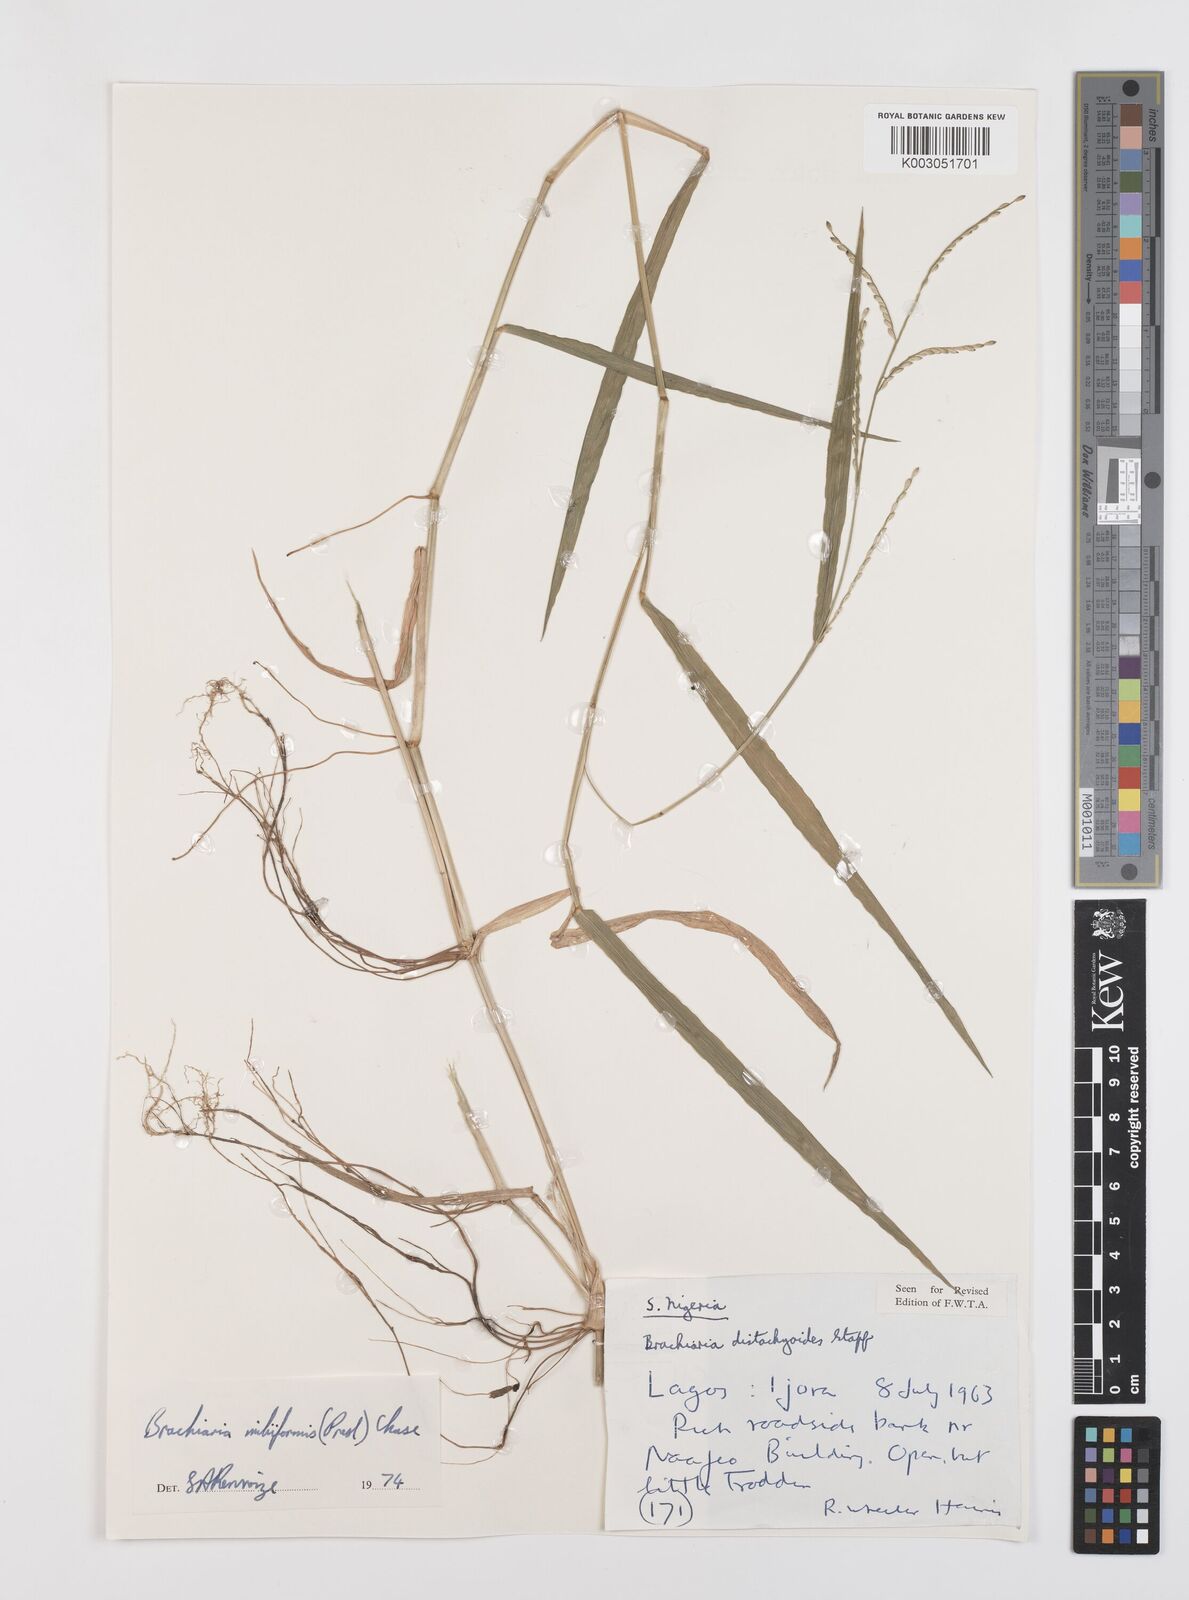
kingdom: Plantae
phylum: Tracheophyta
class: Liliopsida
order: Poales
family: Poaceae
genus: Urochloa
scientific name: Urochloa subquadripara
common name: Armgrass millet
